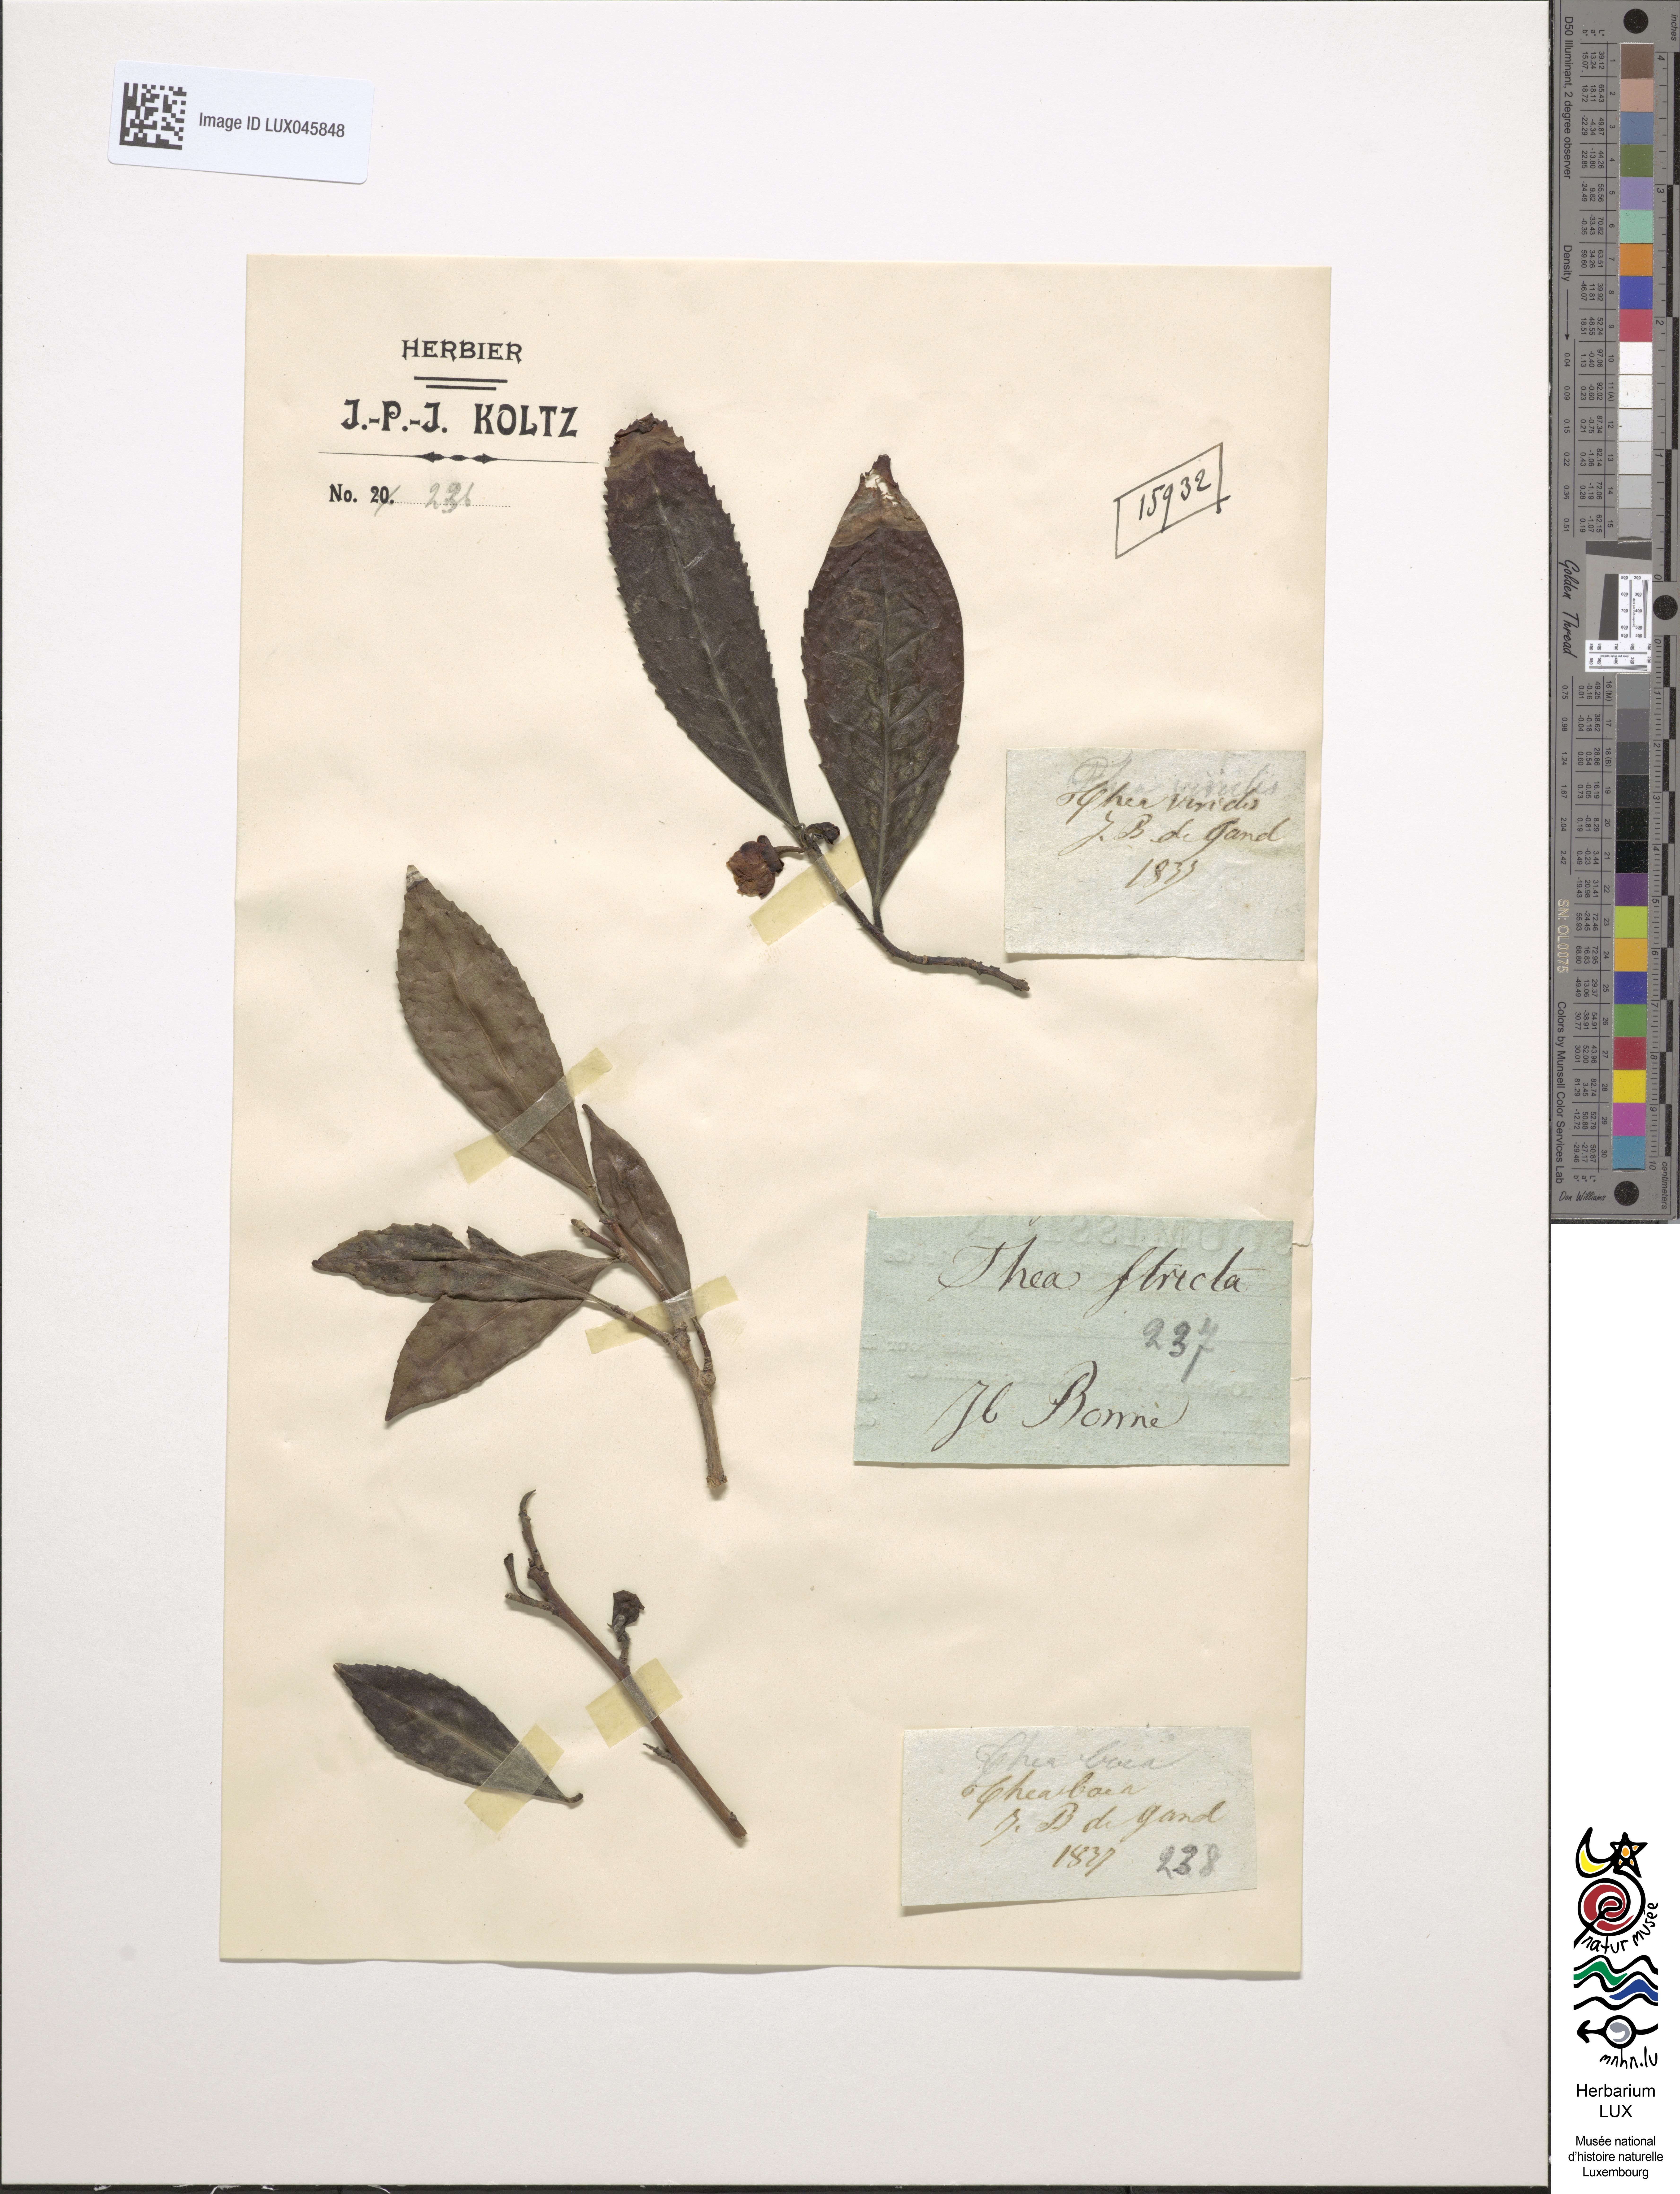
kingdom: Plantae
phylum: Tracheophyta
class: Magnoliopsida
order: Ericales
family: Theaceae
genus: Camellia
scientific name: Camellia
